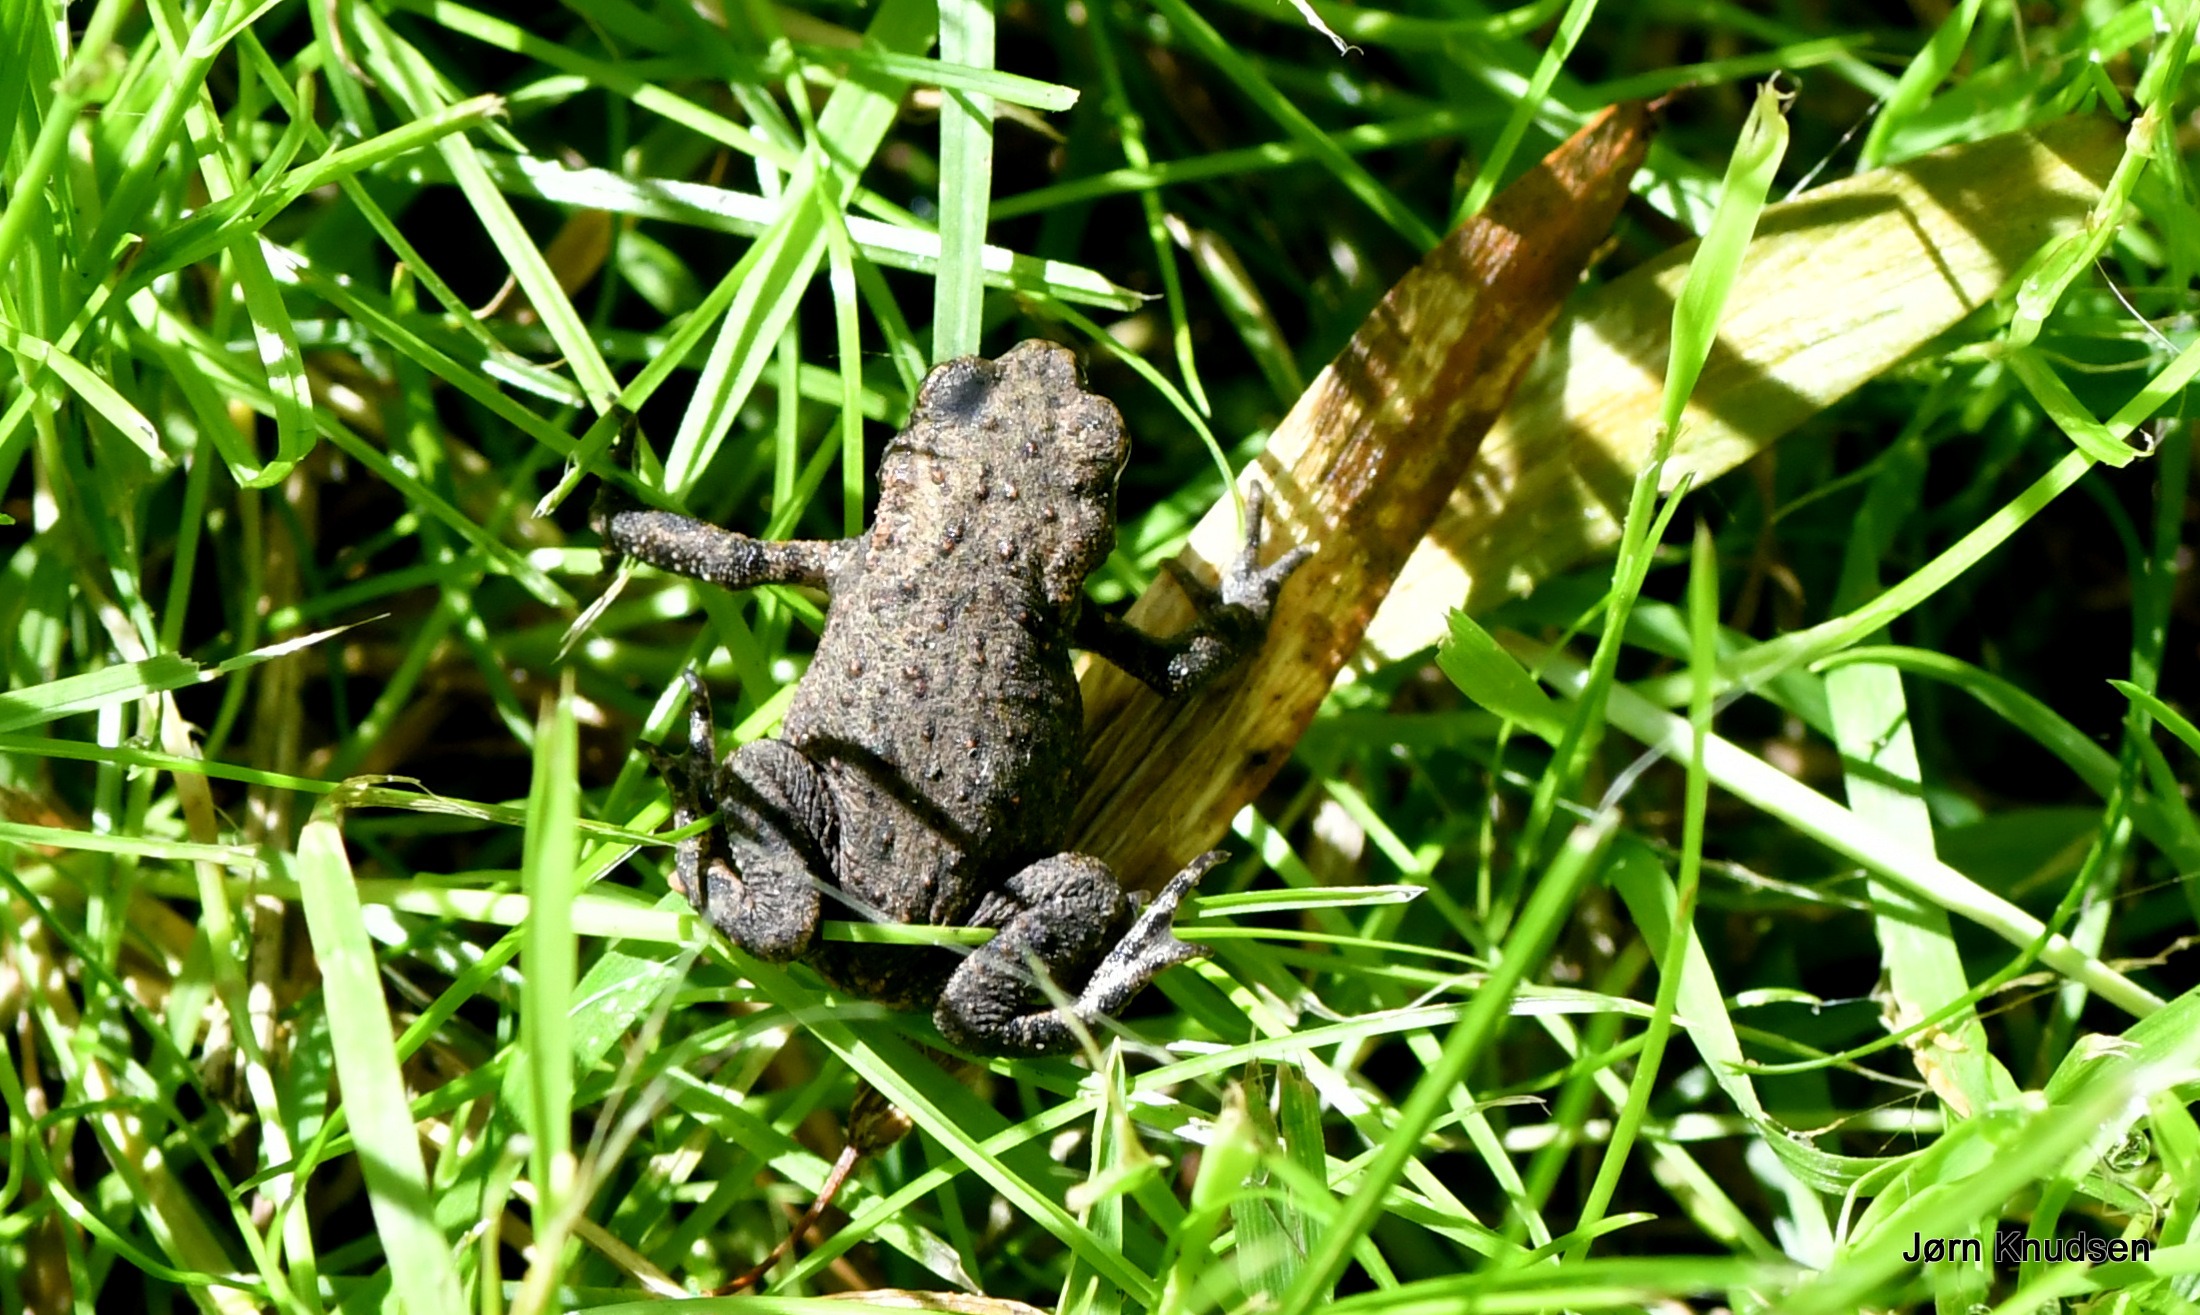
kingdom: Animalia
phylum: Chordata
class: Amphibia
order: Anura
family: Bufonidae
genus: Bufo
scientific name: Bufo bufo
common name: Skrubtudse
